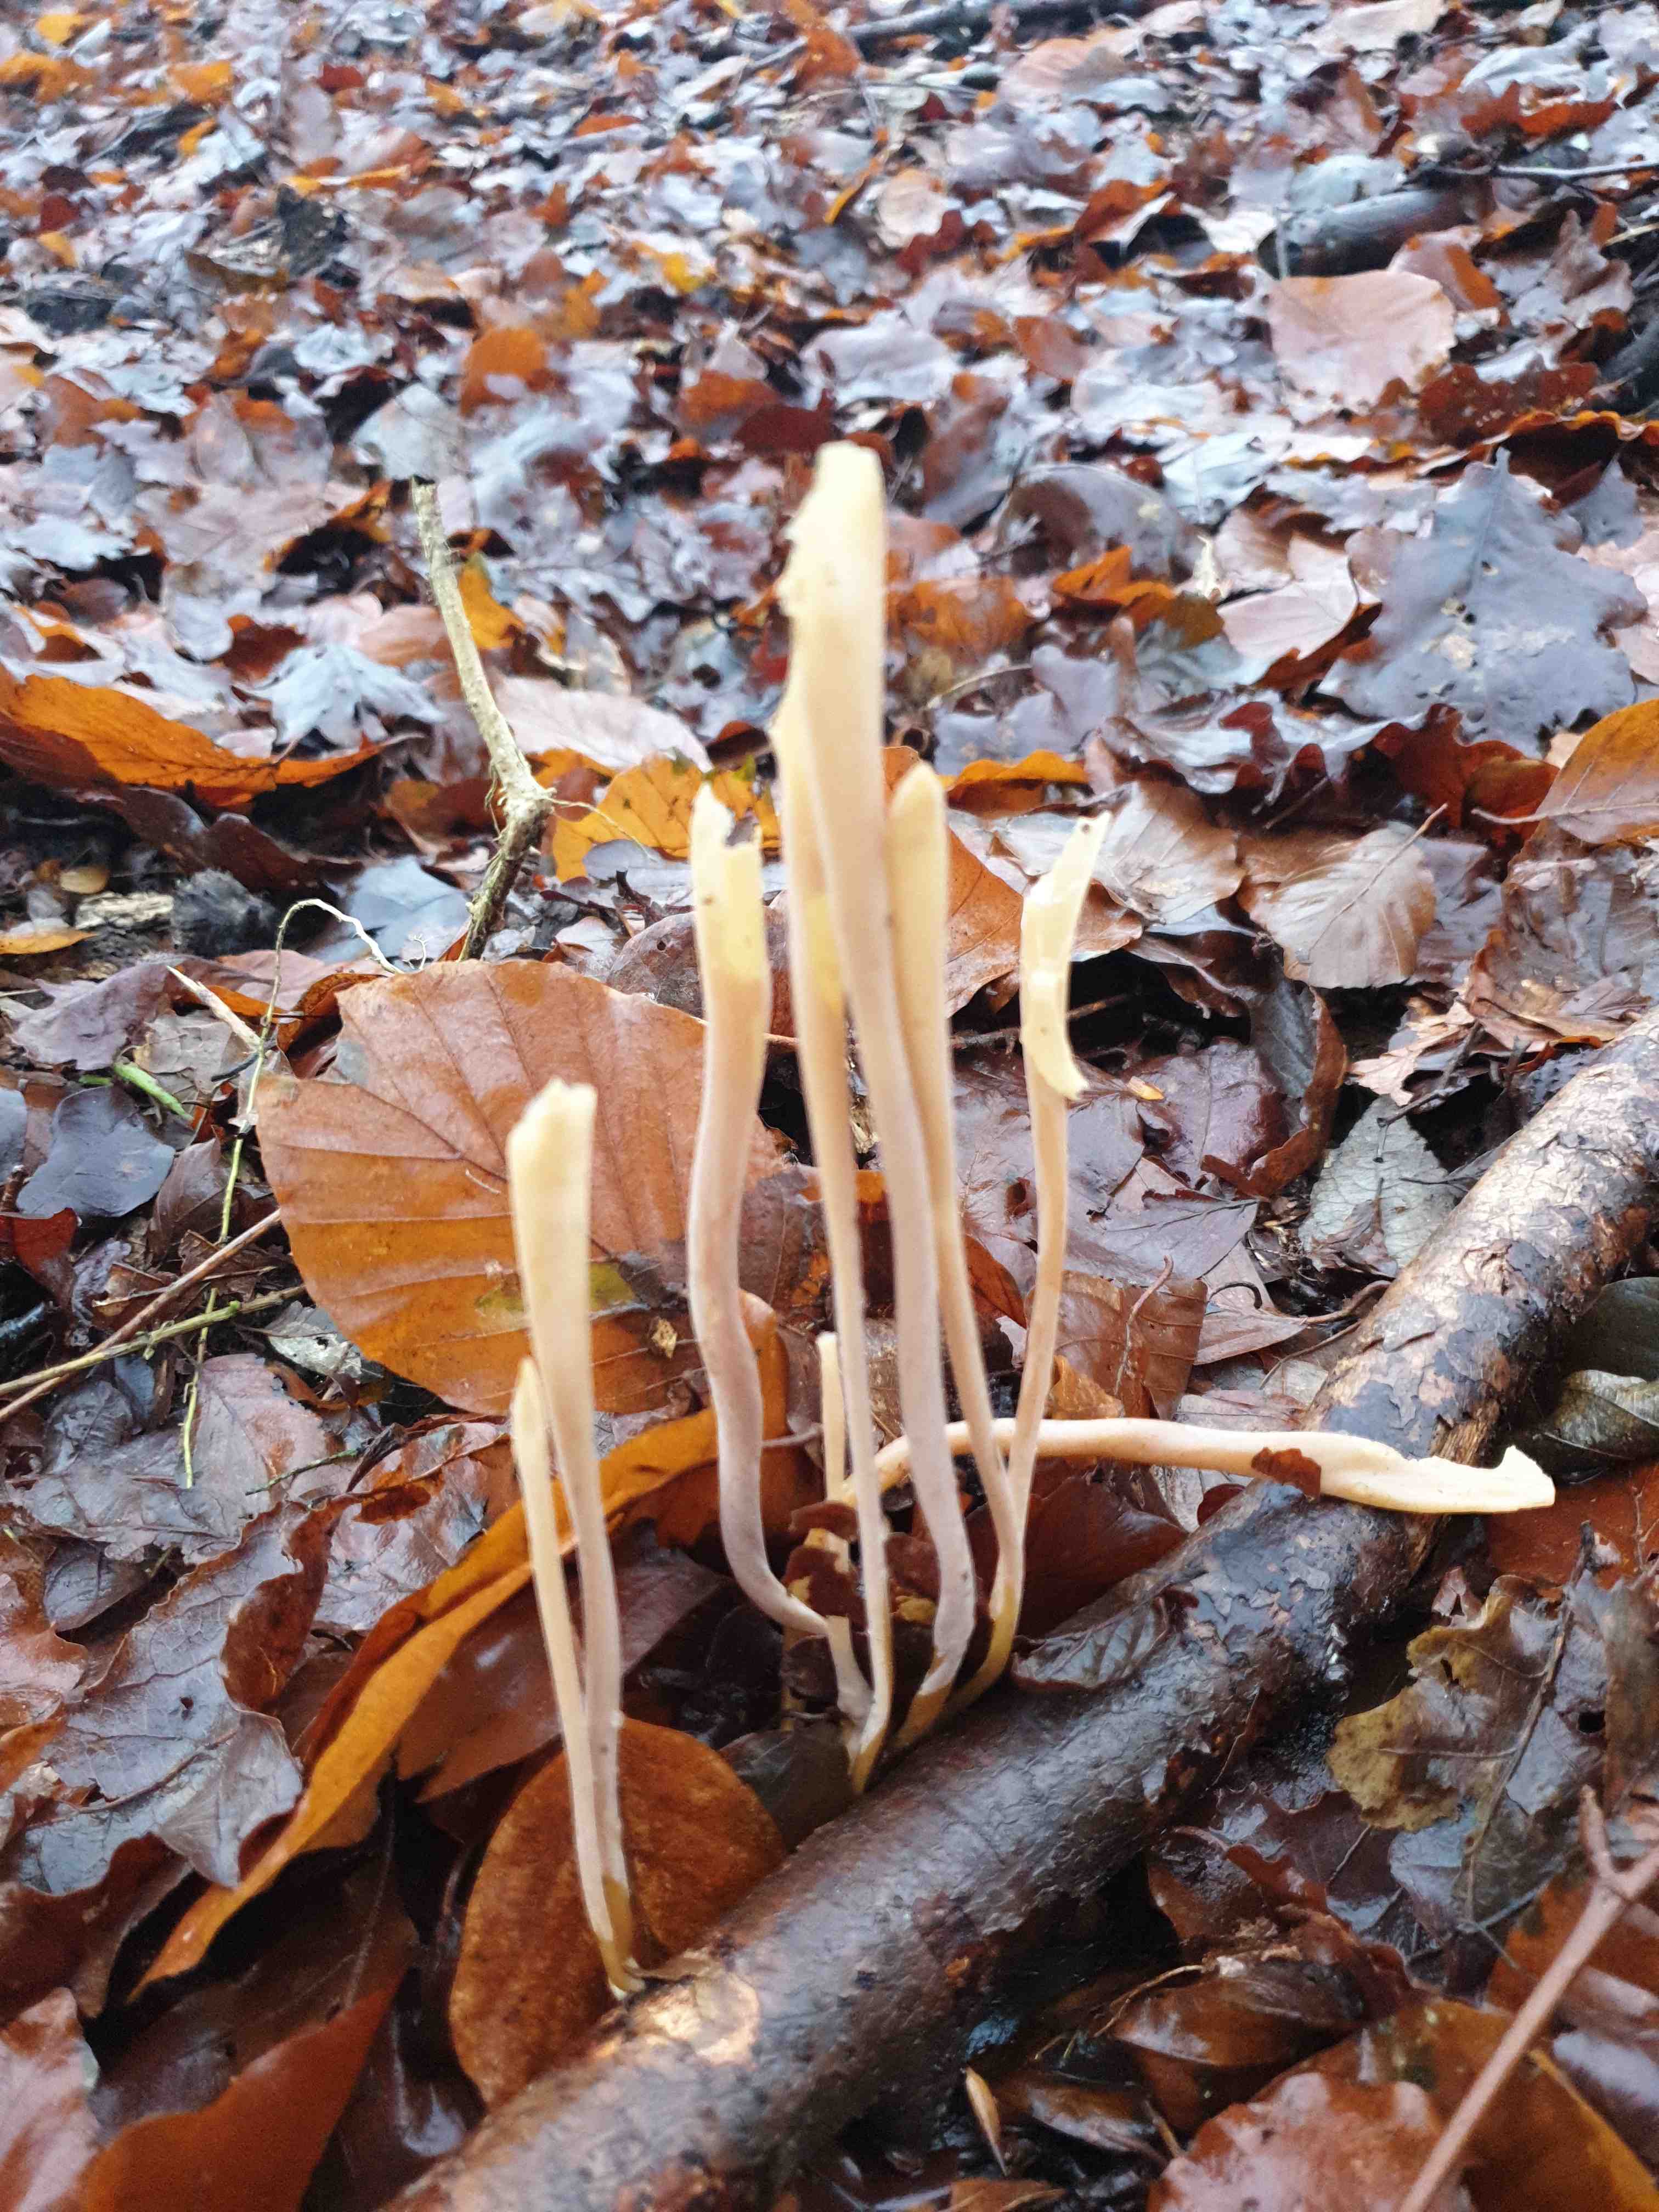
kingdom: Fungi
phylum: Basidiomycota
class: Agaricomycetes
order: Agaricales
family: Typhulaceae
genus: Typhula
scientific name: Typhula fistulosa
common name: pibet rørkølle
